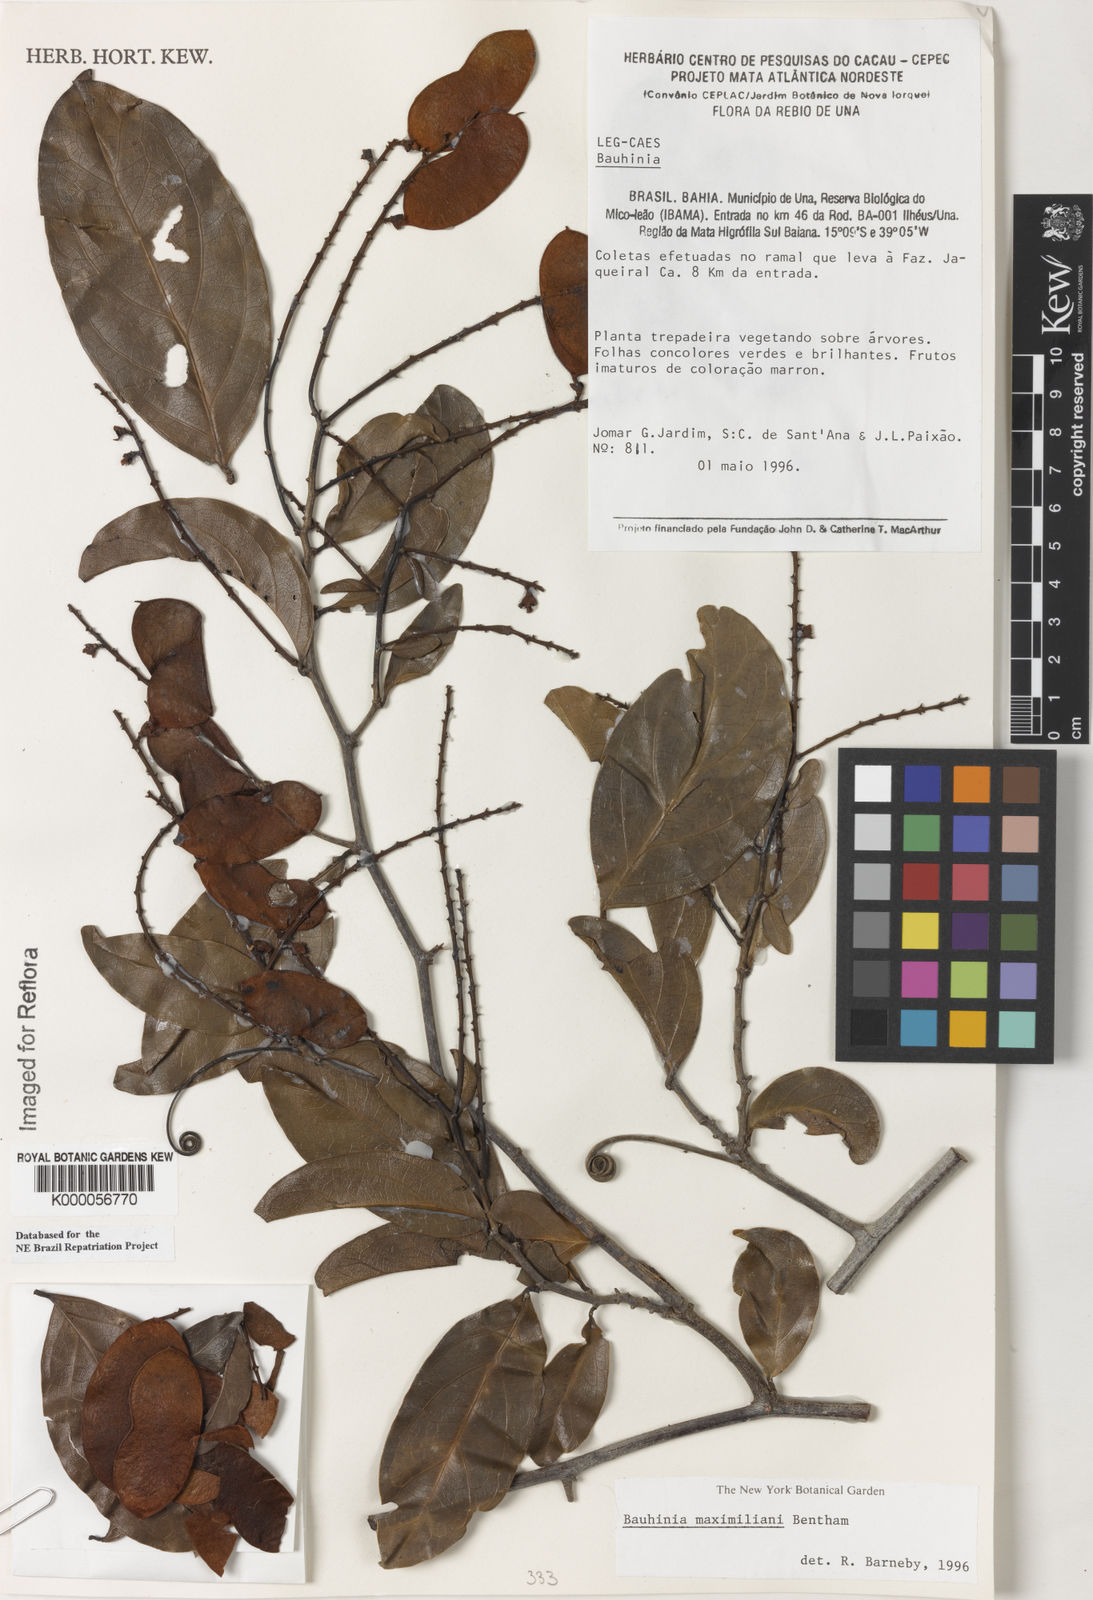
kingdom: Plantae
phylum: Tracheophyta
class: Magnoliopsida
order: Fabales
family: Fabaceae
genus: Schnella
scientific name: Schnella maximiliani
